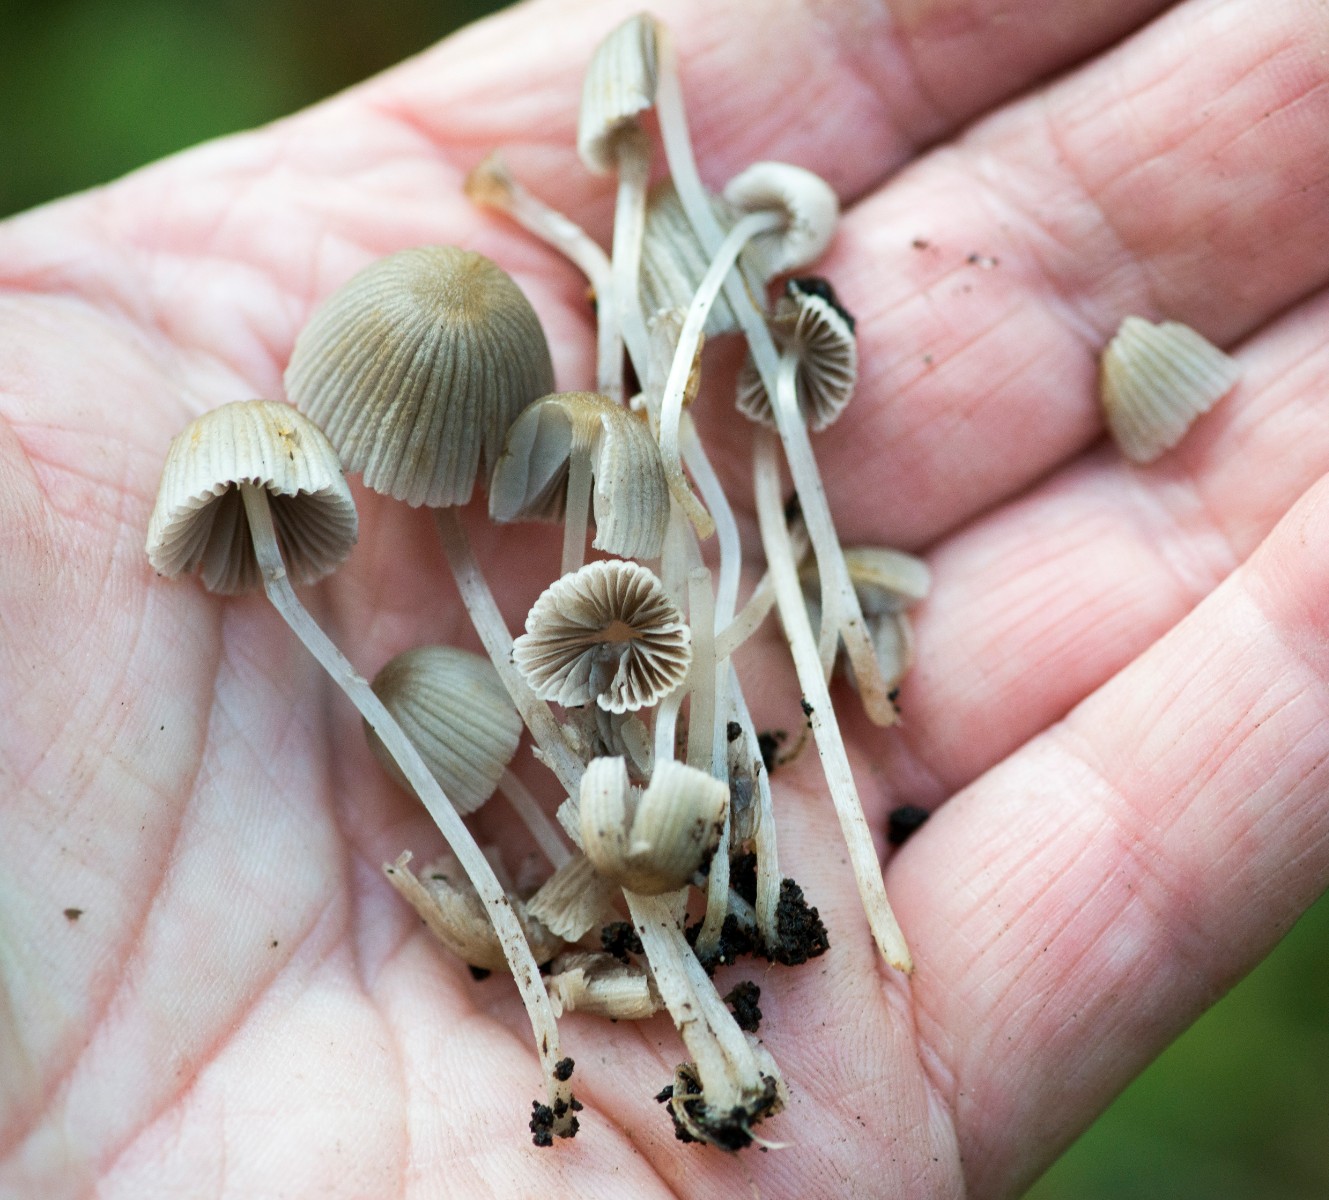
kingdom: Fungi
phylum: Basidiomycota
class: Agaricomycetes
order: Agaricales
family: Psathyrellaceae
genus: Coprinellus
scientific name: Coprinellus disseminatus
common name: bredsået blækhat
